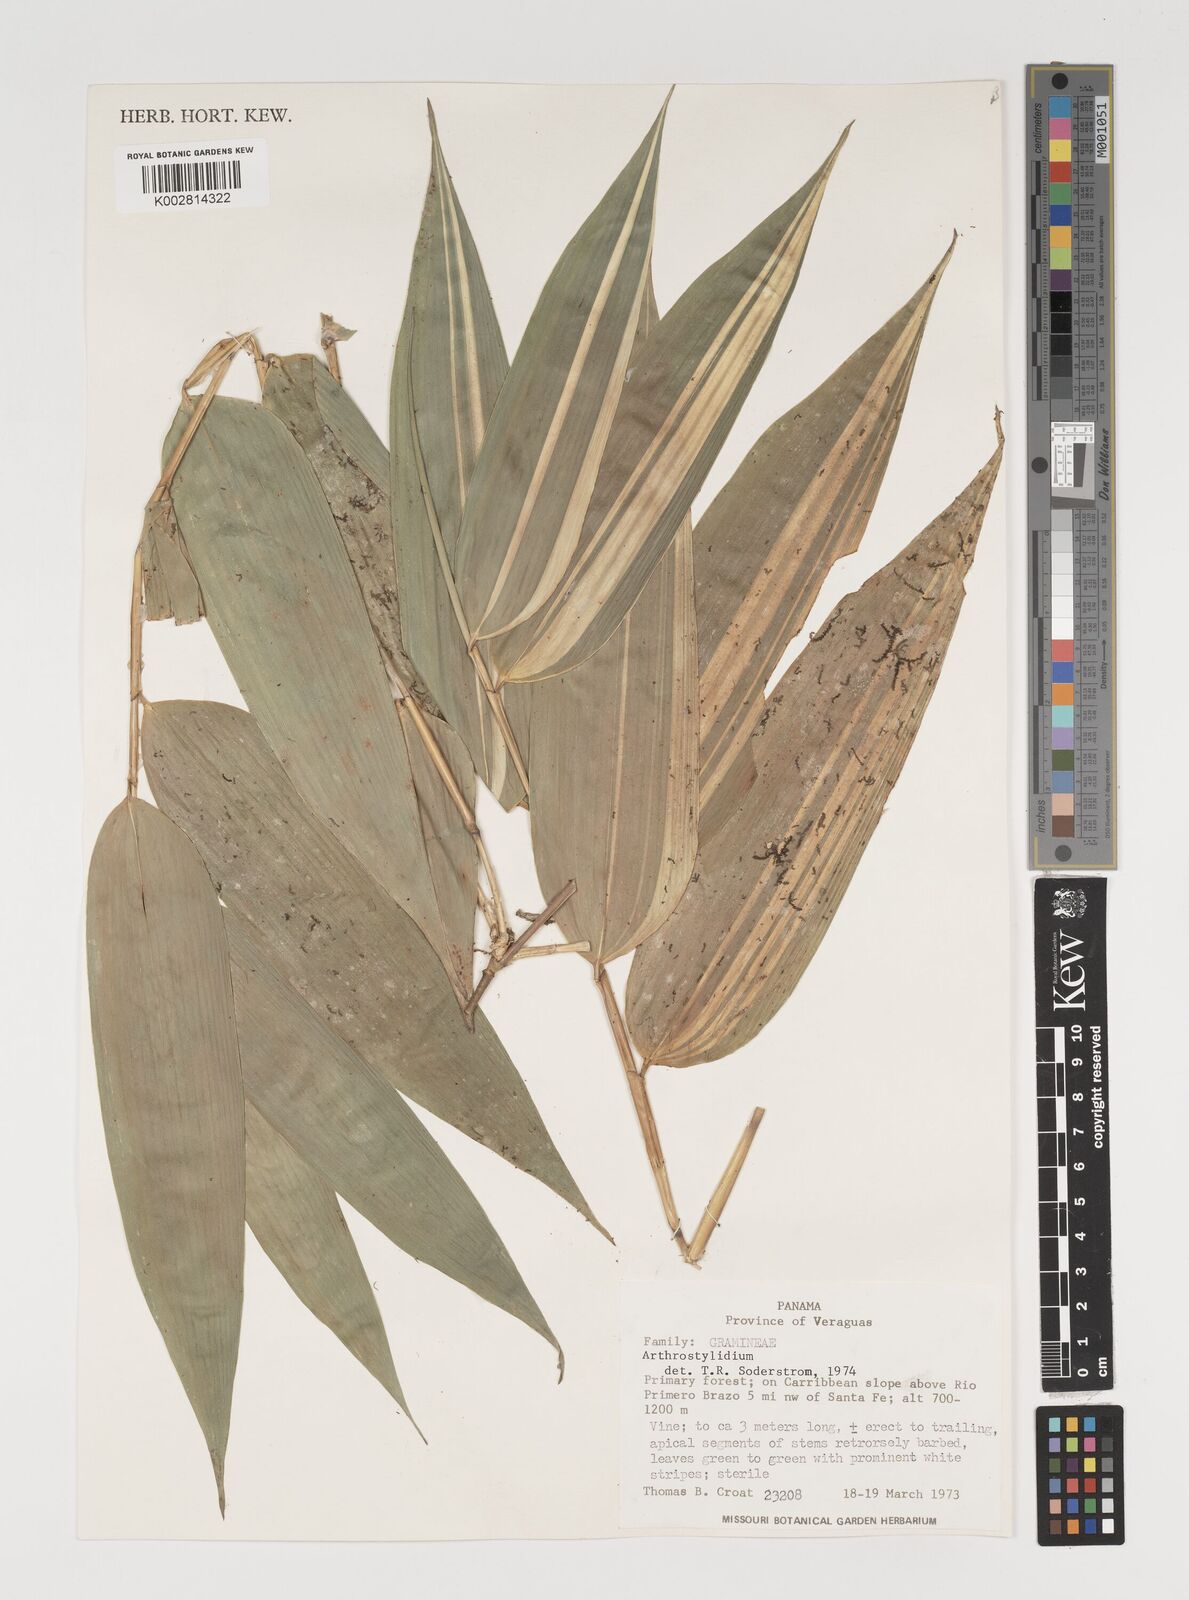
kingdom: Plantae
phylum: Tracheophyta
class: Liliopsida
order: Poales
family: Poaceae
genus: Arthrostylidium
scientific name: Arthrostylidium
